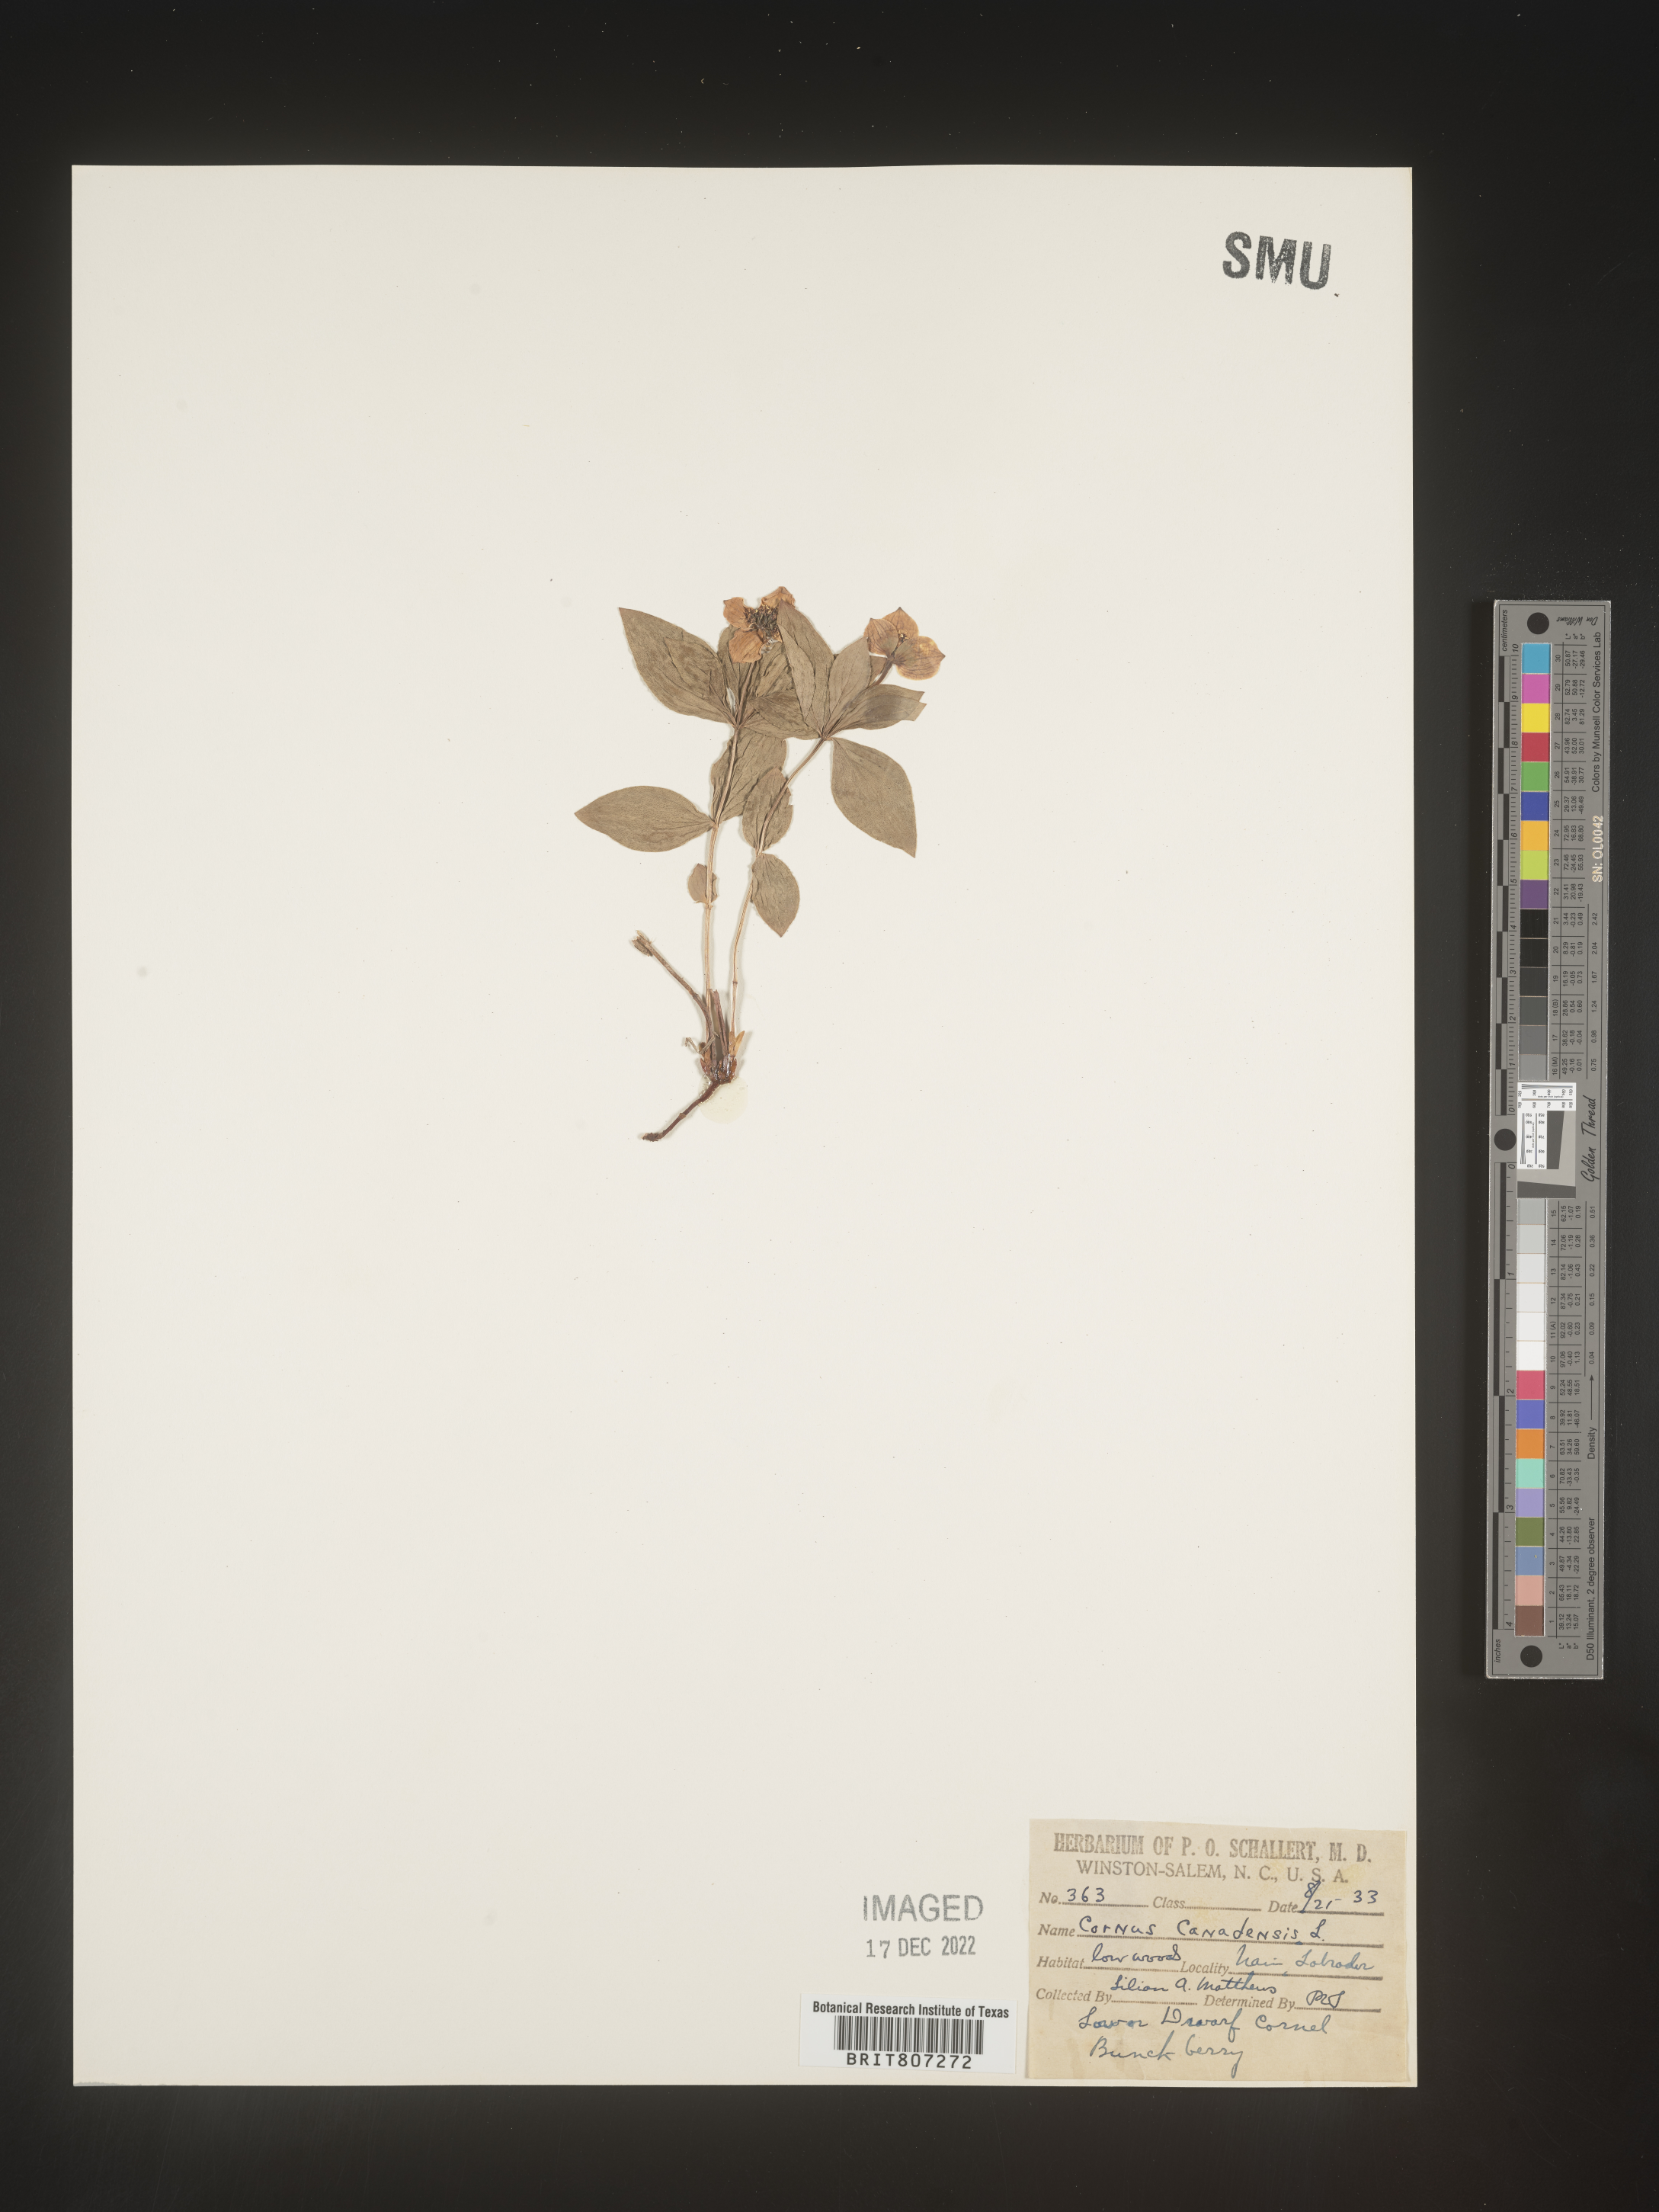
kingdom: Plantae
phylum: Tracheophyta
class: Magnoliopsida
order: Cornales
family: Cornaceae
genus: Cornus
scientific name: Cornus canadensis
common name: Creeping dogwood
